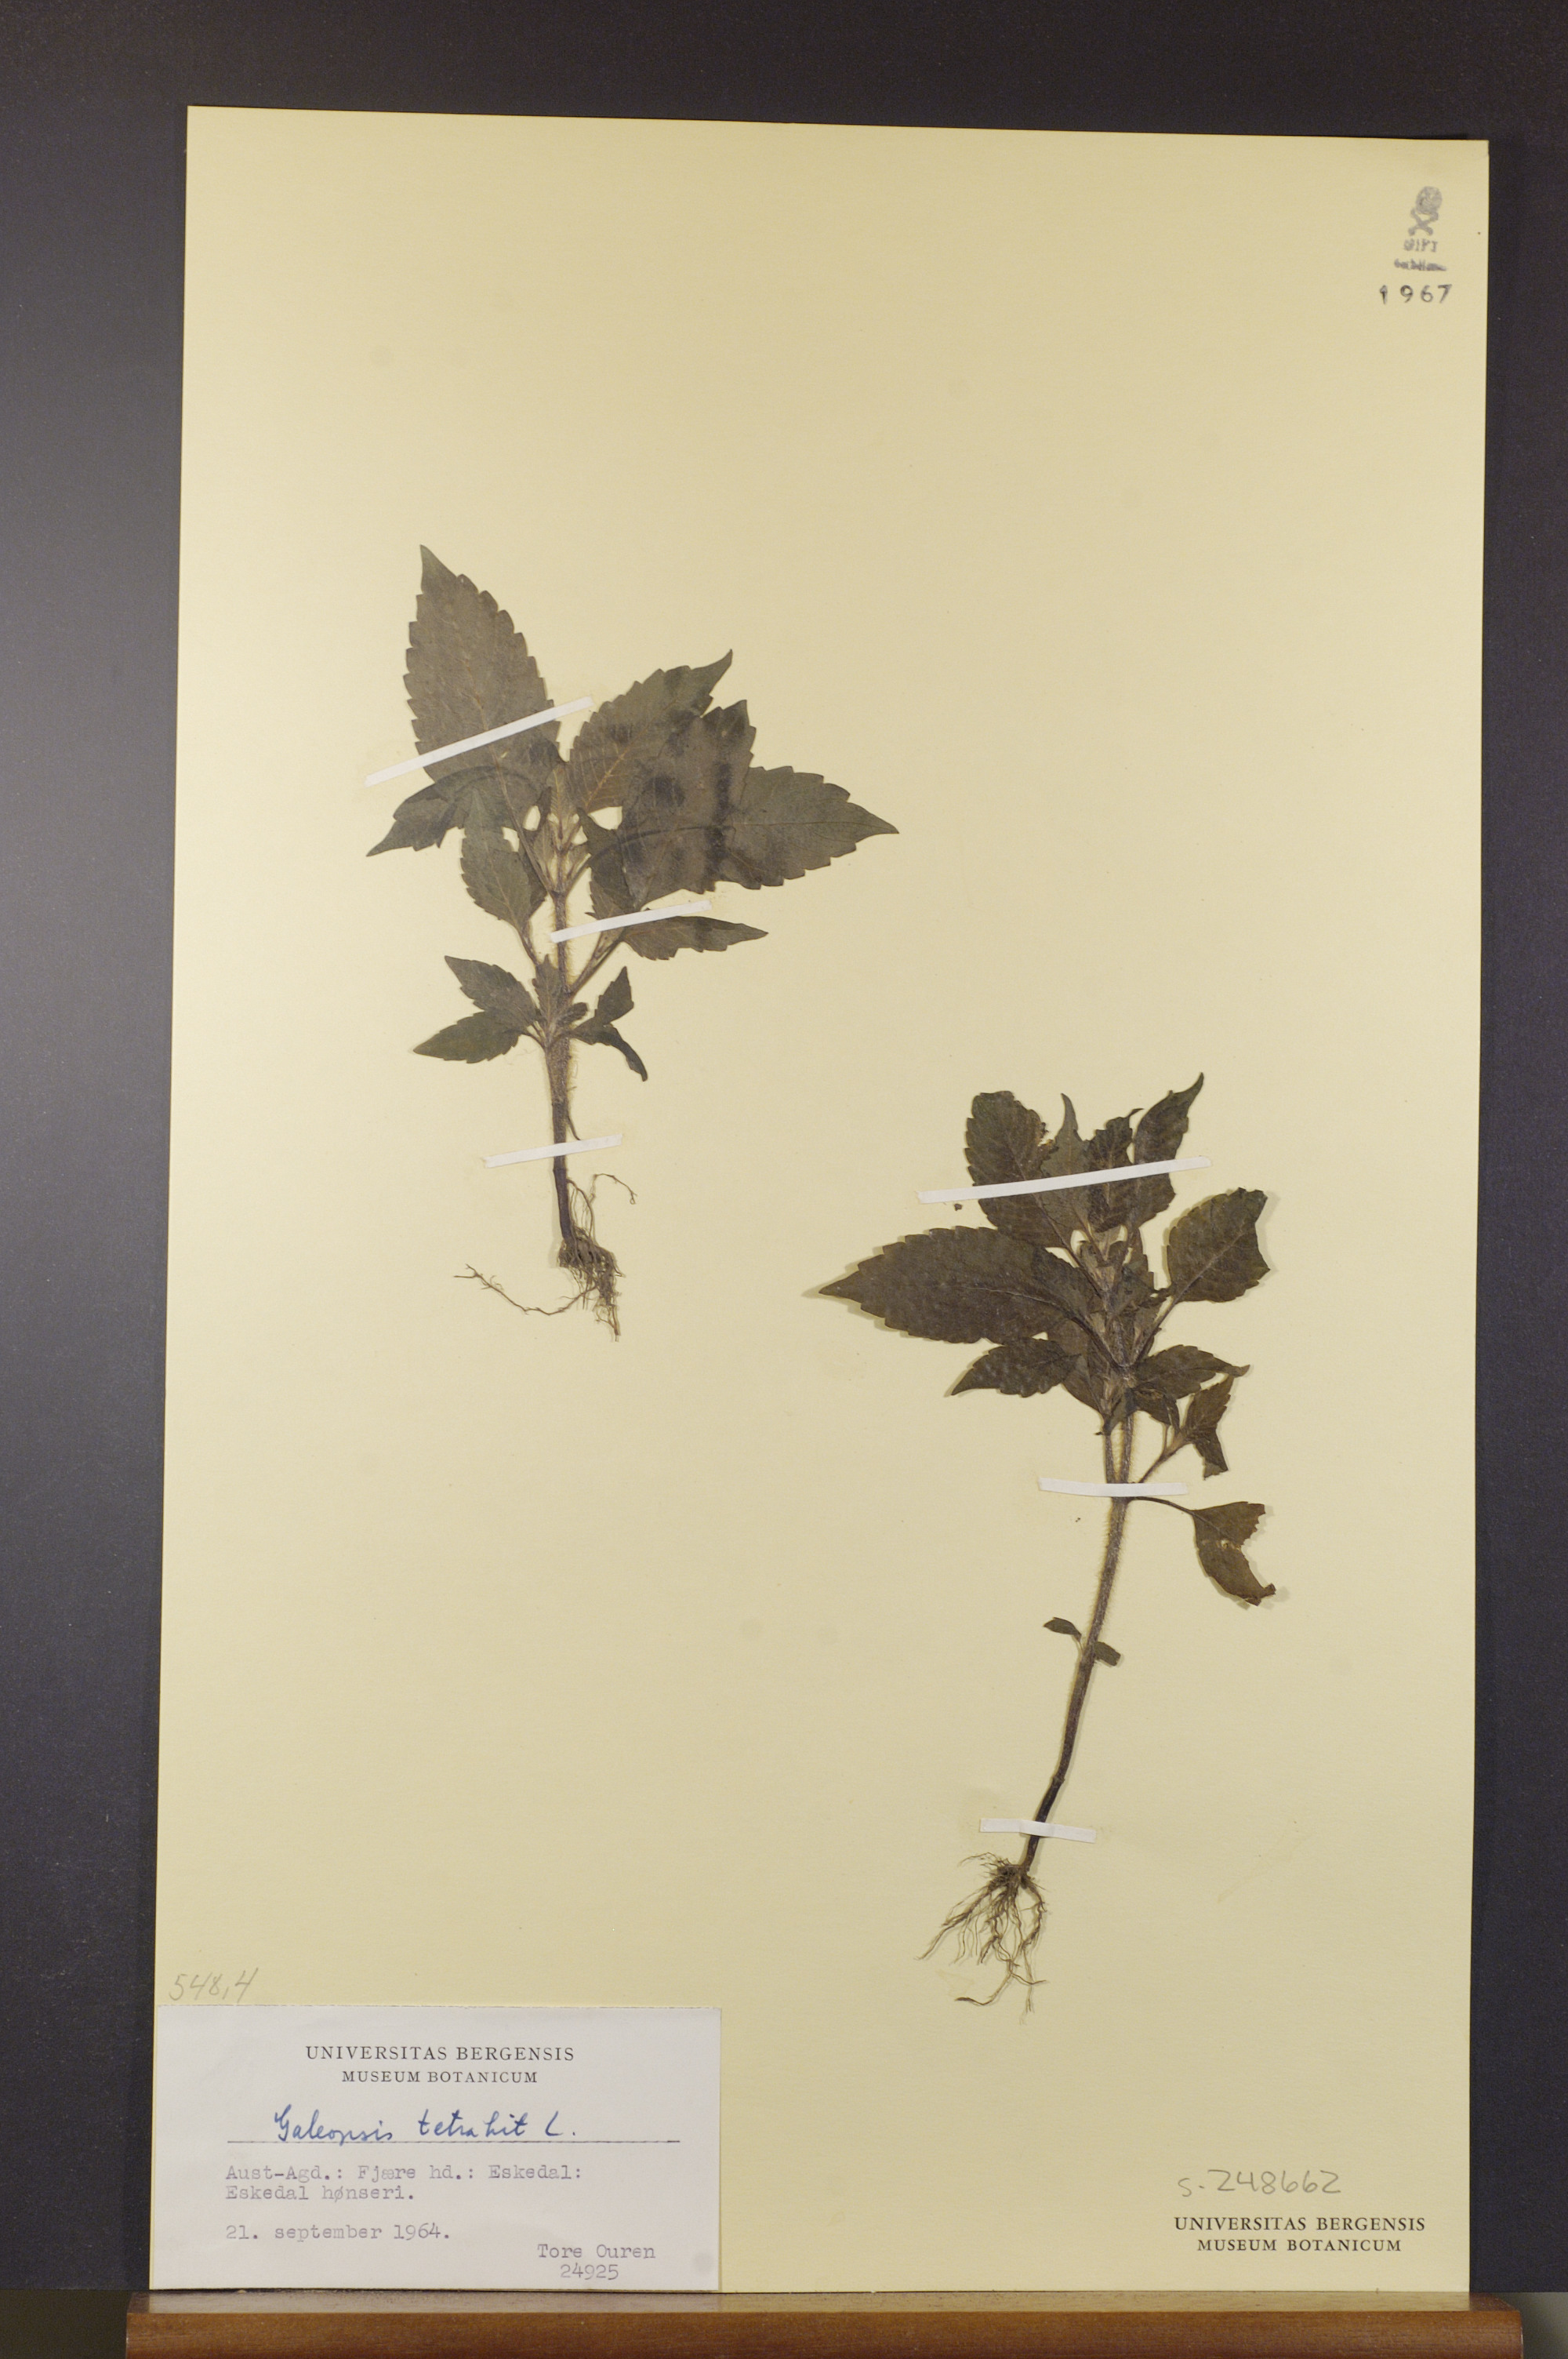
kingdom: Plantae
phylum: Tracheophyta
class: Magnoliopsida
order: Lamiales
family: Lamiaceae
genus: Galeopsis
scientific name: Galeopsis tetrahit
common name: Common hemp-nettle
